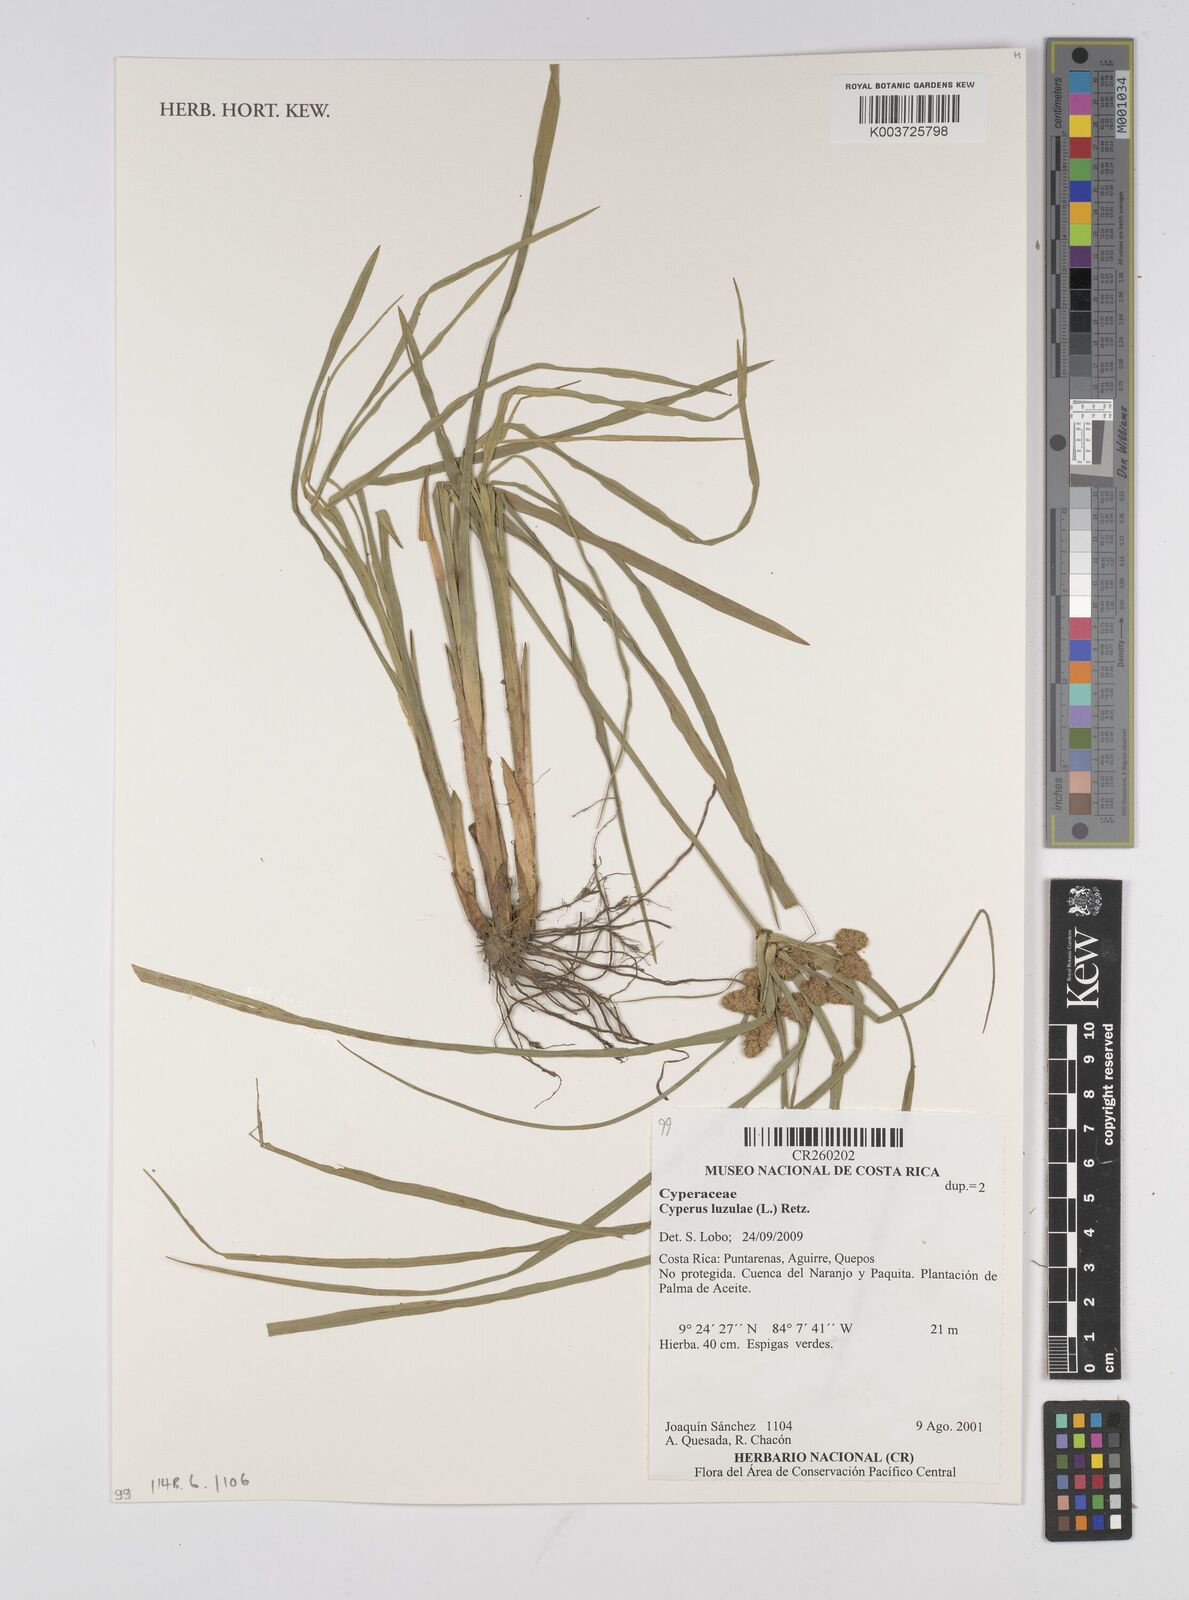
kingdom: Plantae
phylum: Tracheophyta
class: Liliopsida
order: Poales
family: Cyperaceae
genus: Cyperus
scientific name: Cyperus luzulae
